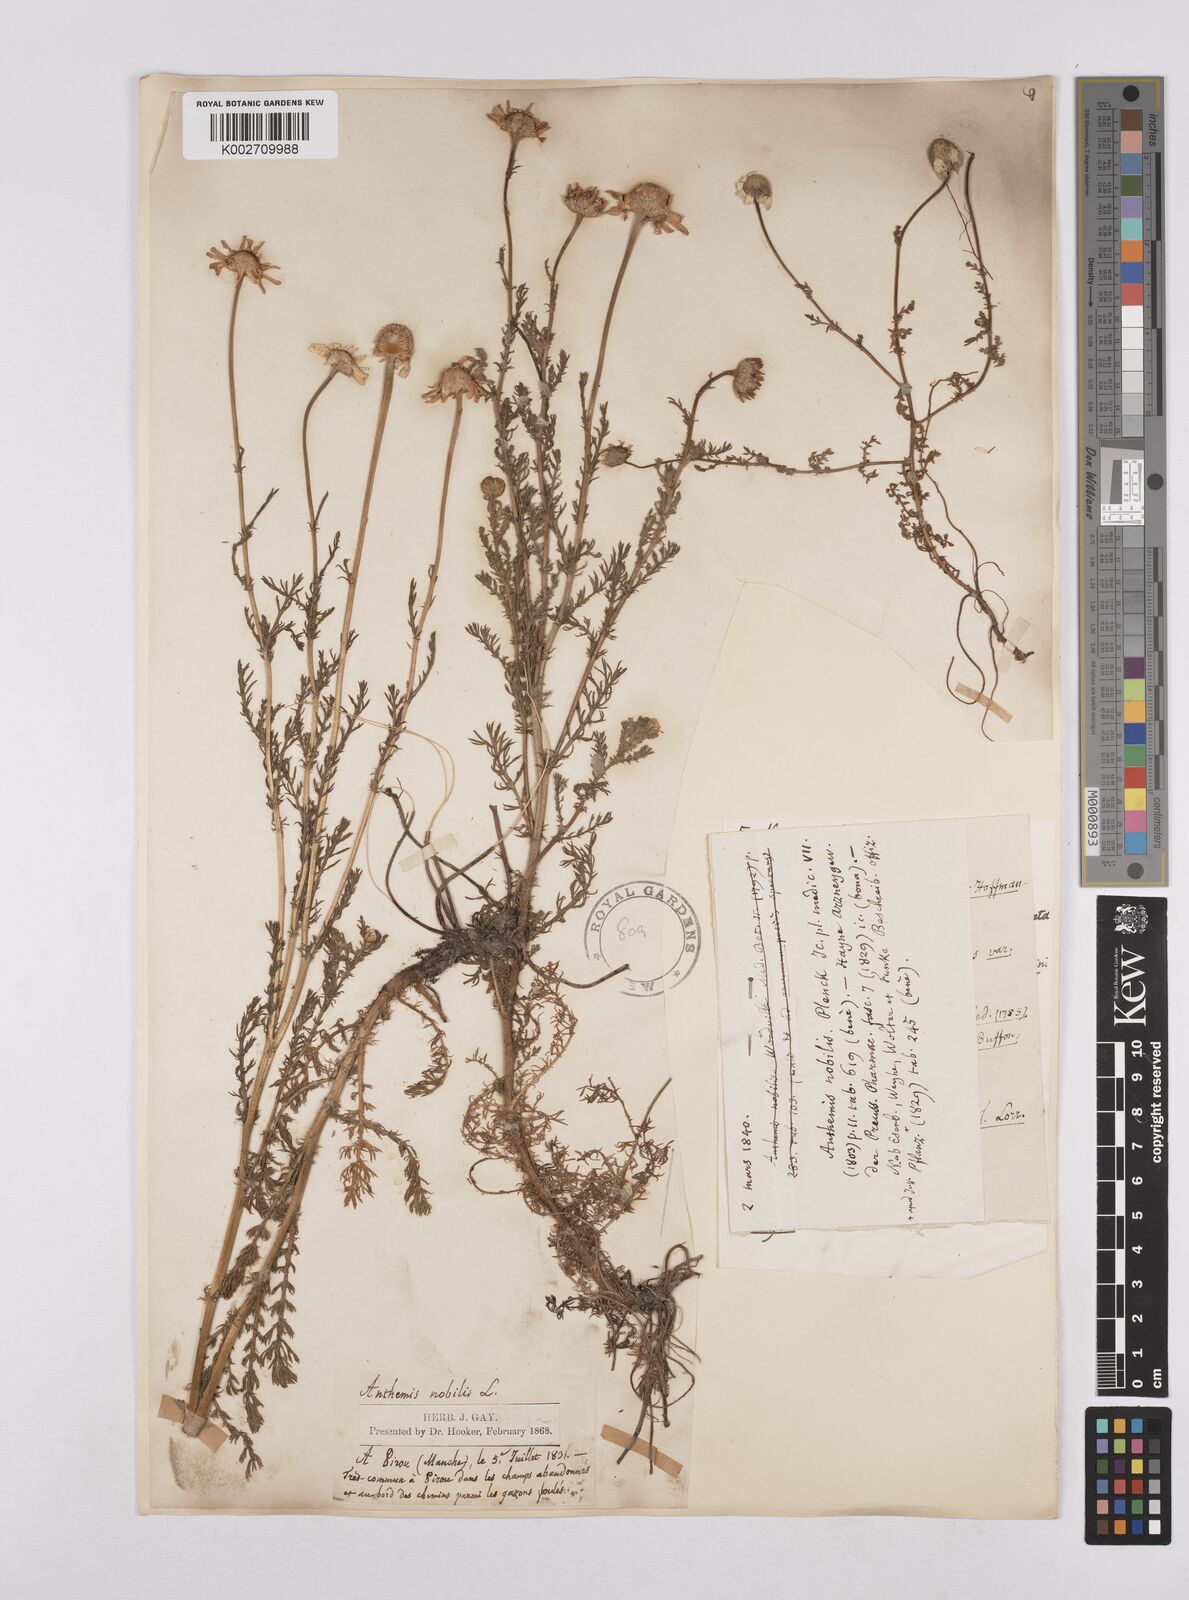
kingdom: Plantae
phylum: Tracheophyta
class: Magnoliopsida
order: Asterales
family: Asteraceae
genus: Chamaemelum
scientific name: Chamaemelum nobile
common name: Roman chamomile
